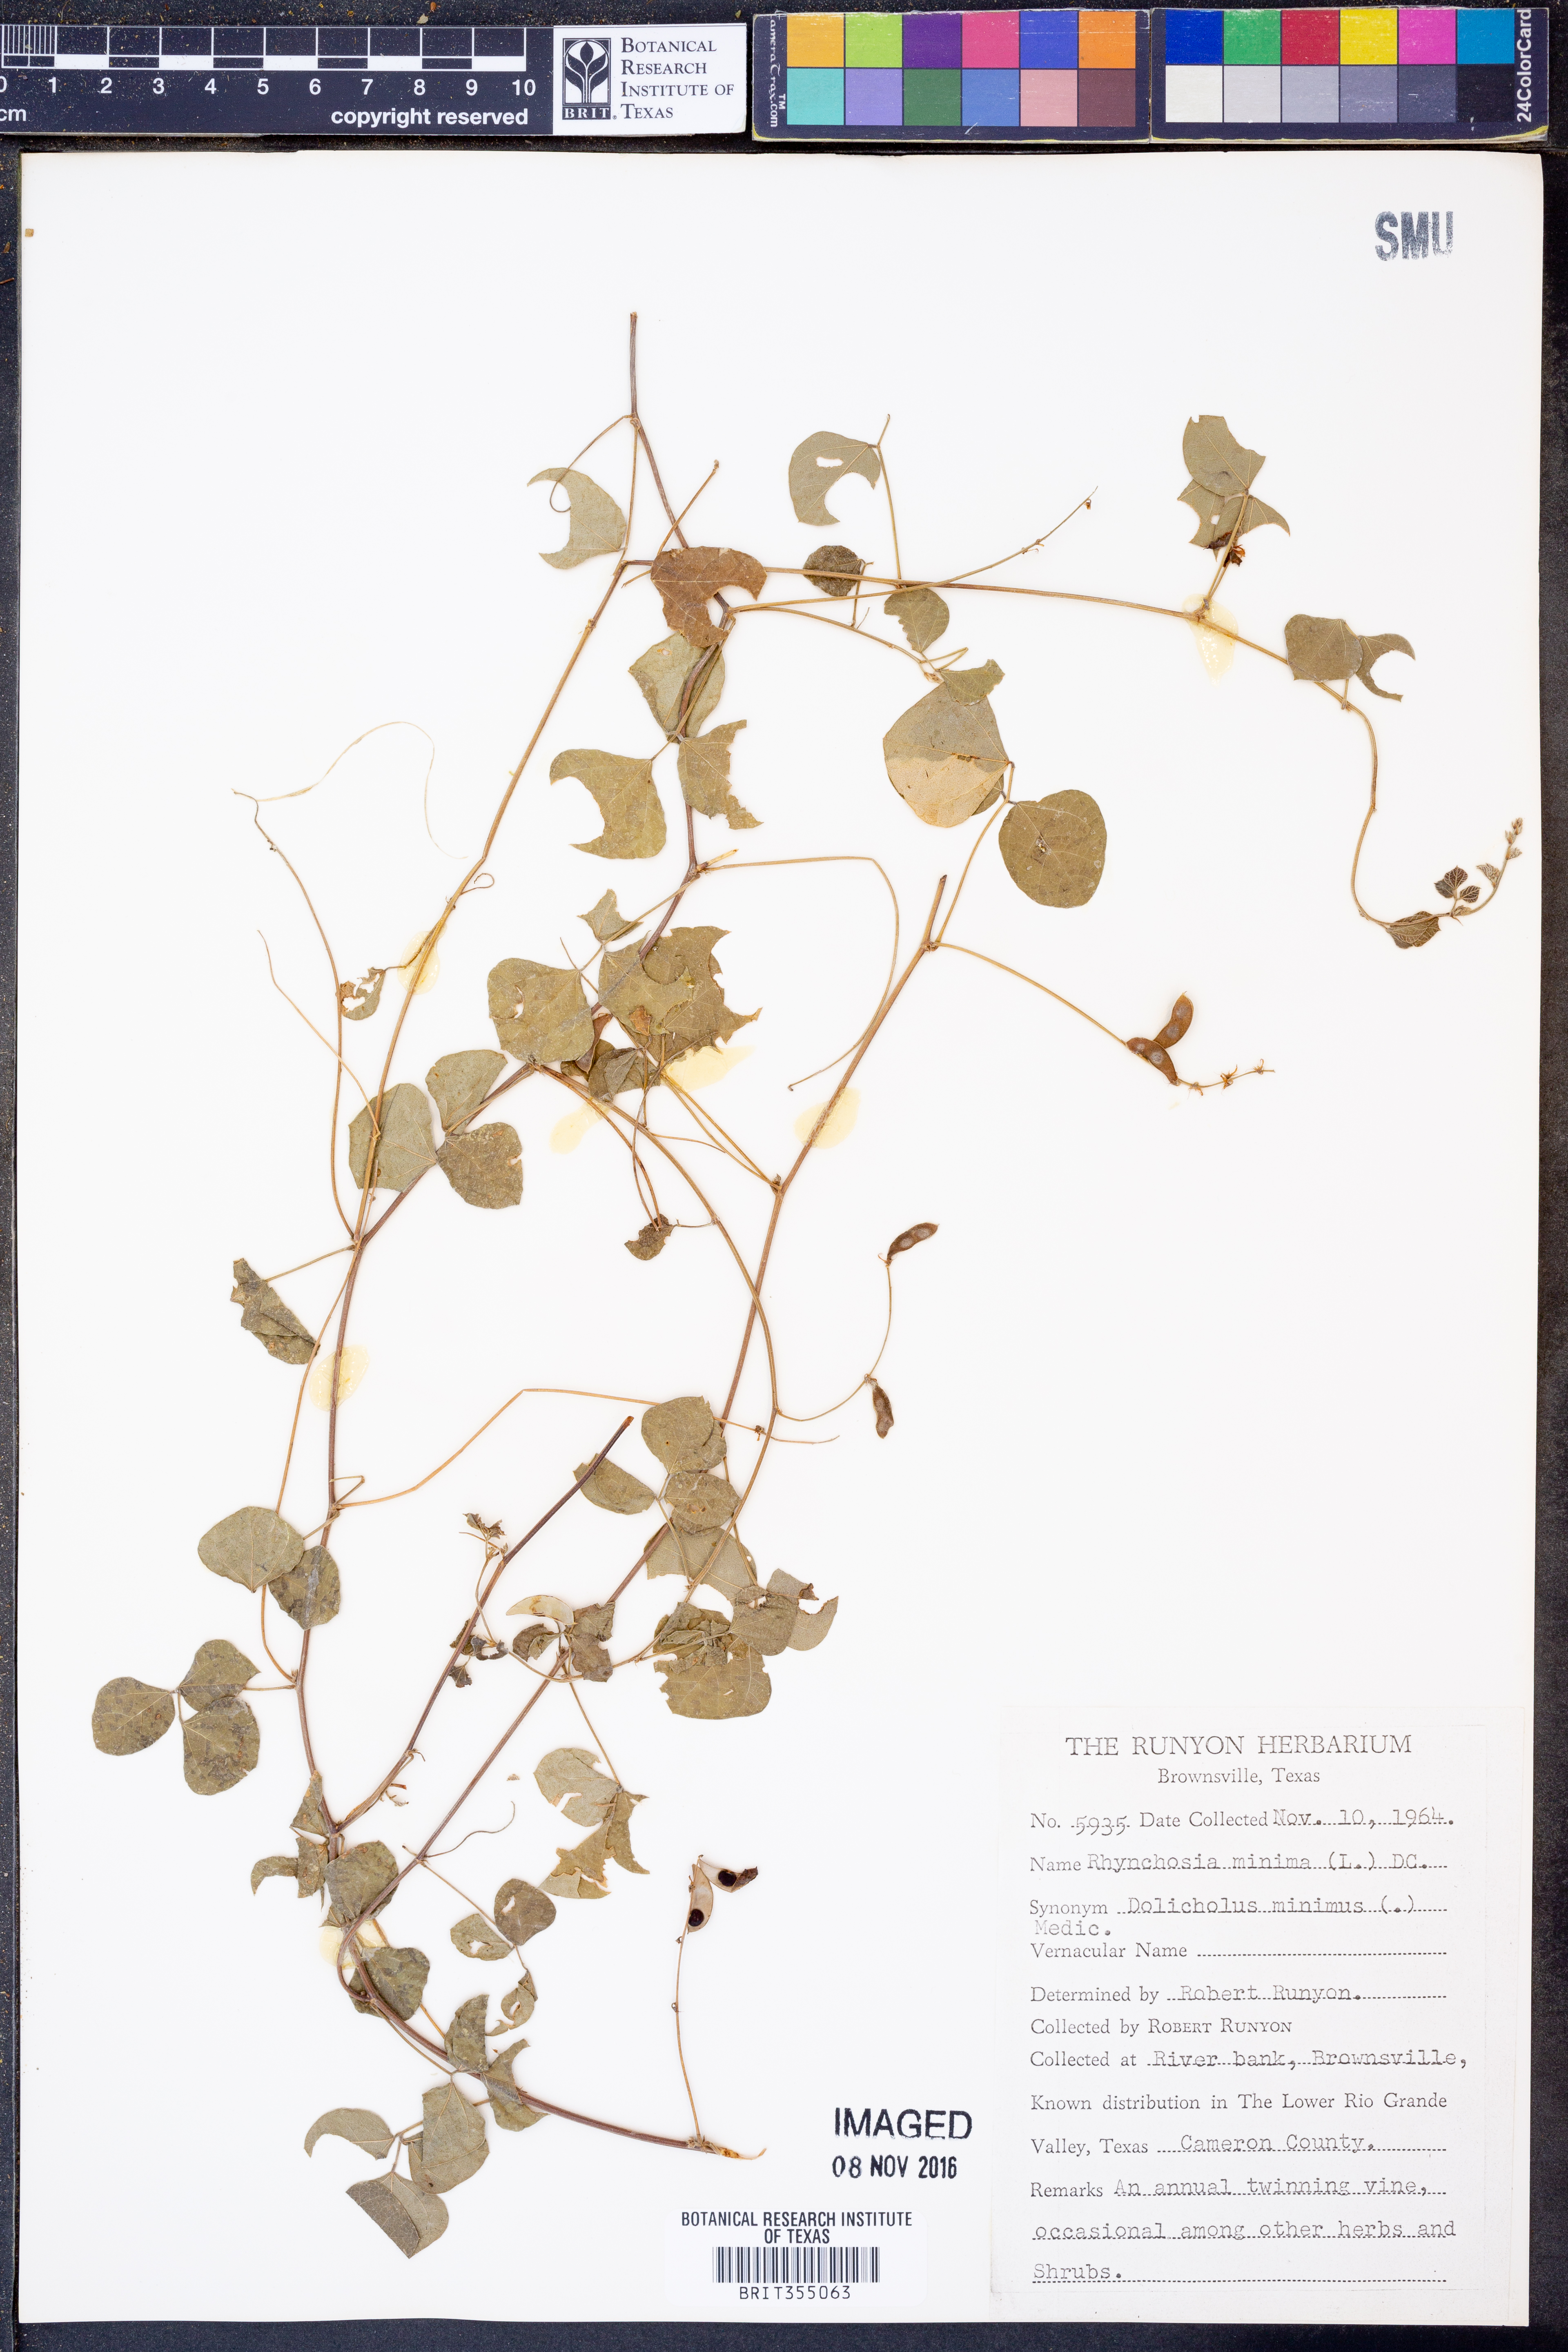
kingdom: Plantae
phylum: Tracheophyta
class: Magnoliopsida
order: Fabales
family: Fabaceae
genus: Rhynchosia
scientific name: Rhynchosia minima
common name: Least snoutbean
